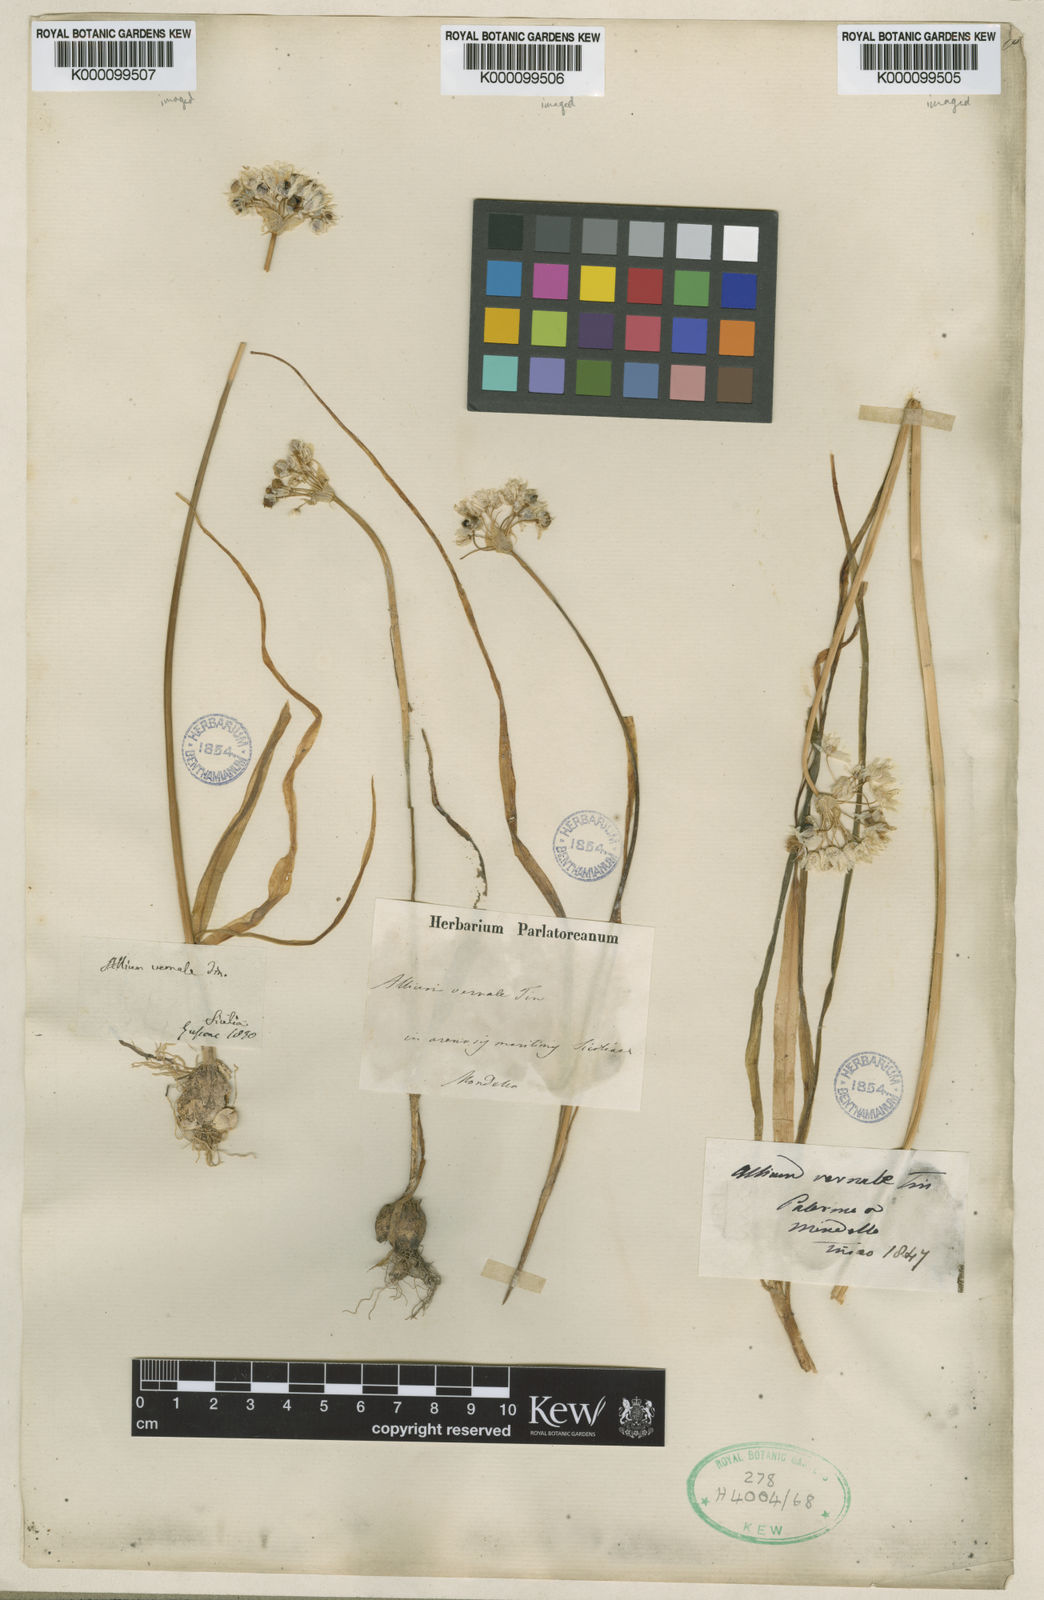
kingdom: Plantae
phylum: Tracheophyta
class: Liliopsida
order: Asparagales
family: Amaryllidaceae
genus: Allium
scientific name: Allium subvillosum
